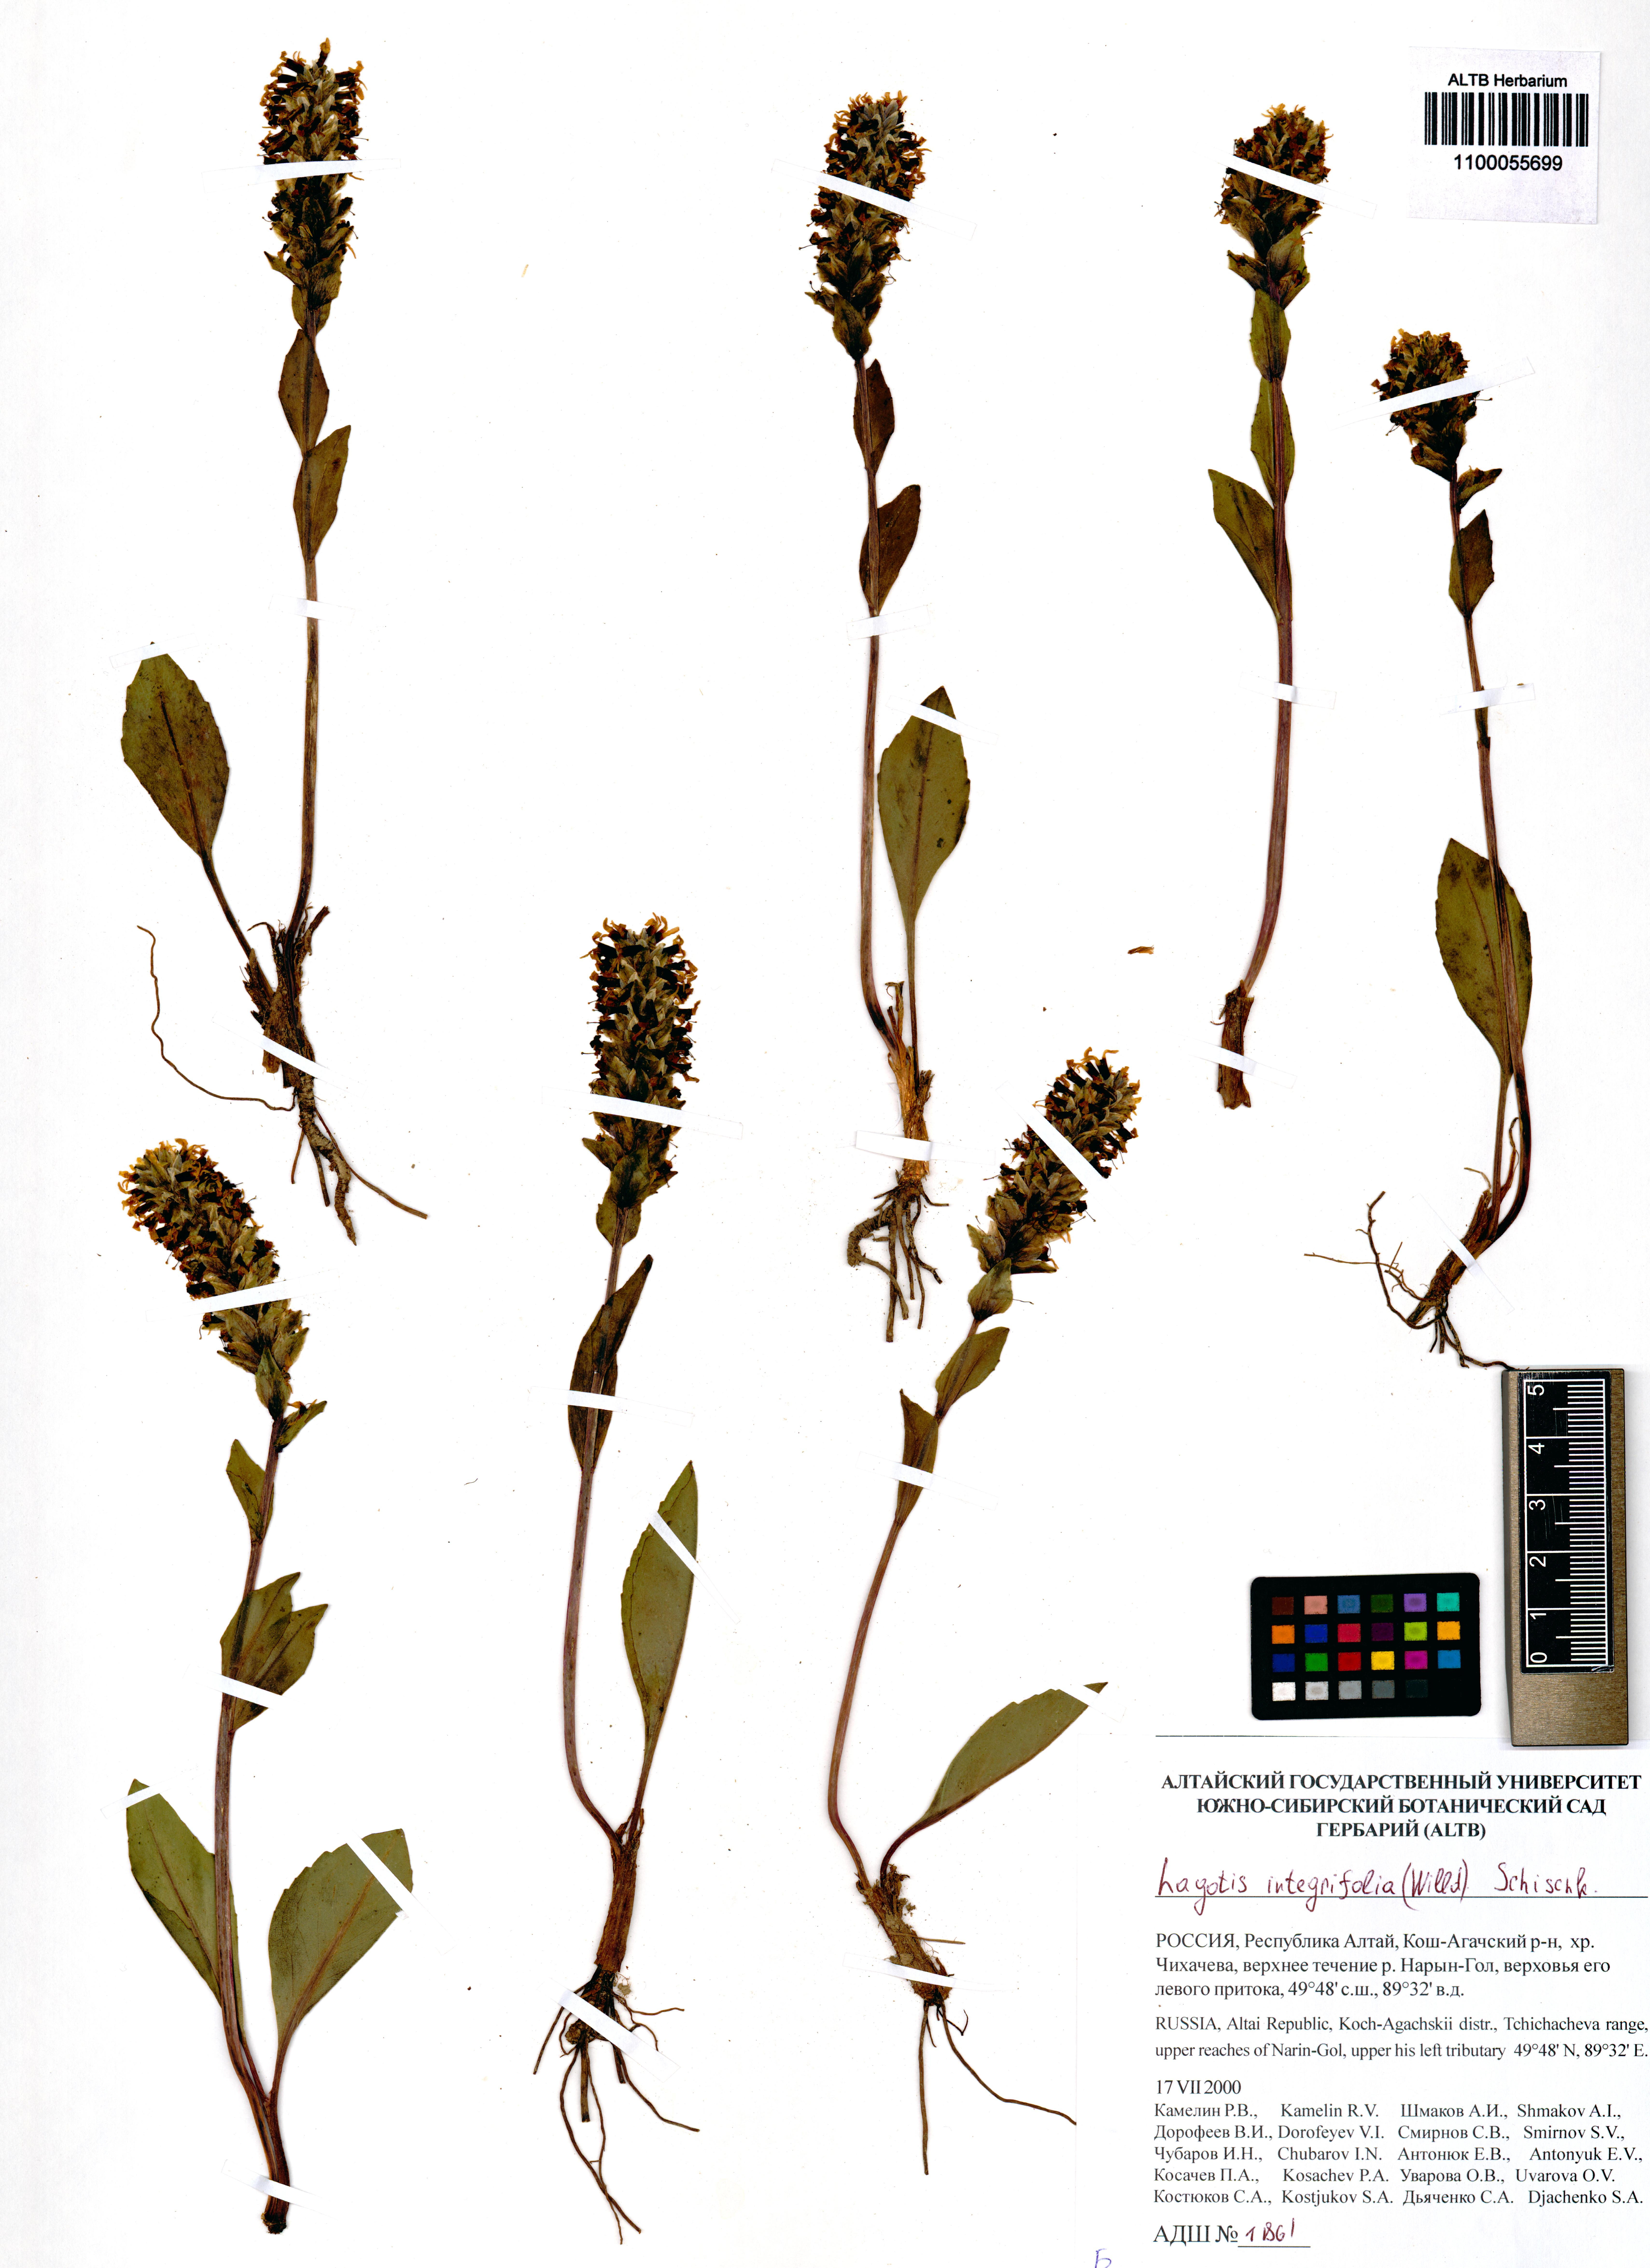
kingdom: Plantae
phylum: Tracheophyta
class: Magnoliopsida
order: Lamiales
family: Plantaginaceae
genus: Lagotis
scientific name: Lagotis integrifolia
